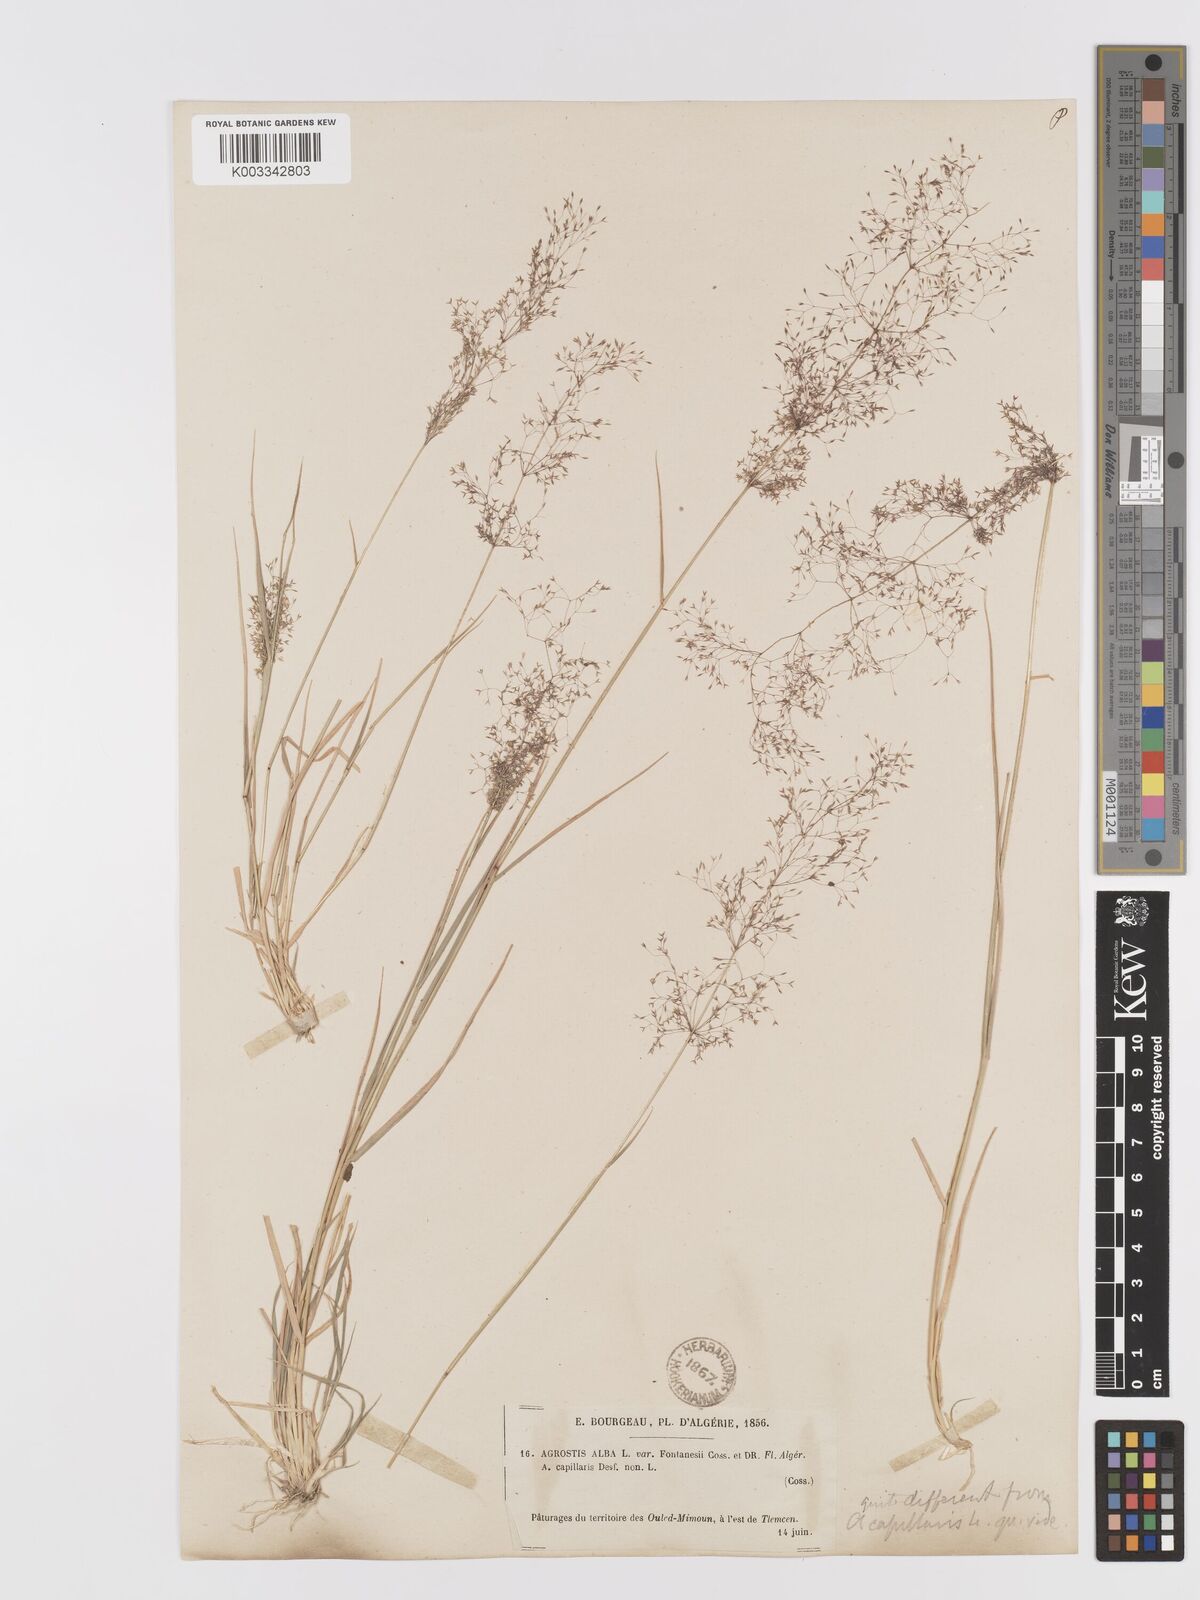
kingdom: Plantae
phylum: Tracheophyta
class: Liliopsida
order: Poales
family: Poaceae
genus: Agrostis
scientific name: Agrostis reuteri
